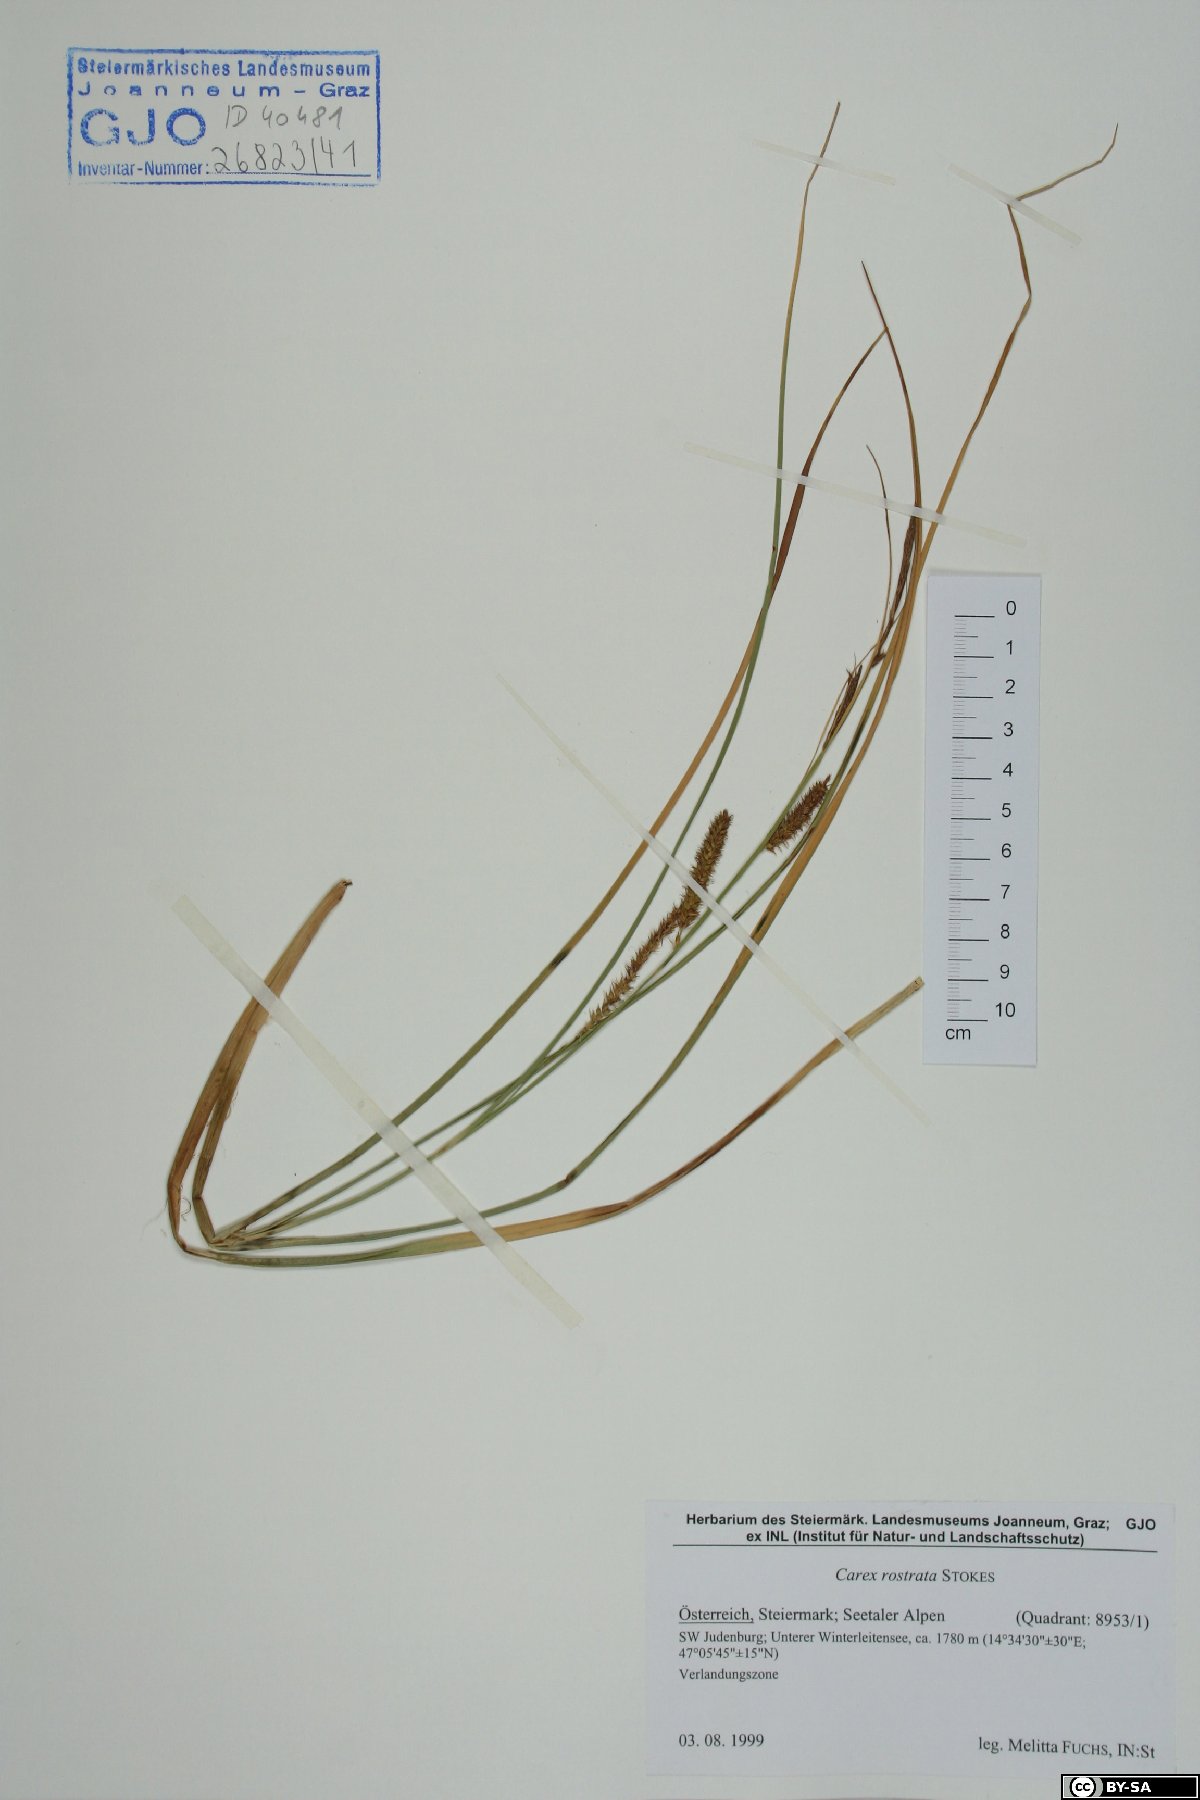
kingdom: Plantae
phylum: Tracheophyta
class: Liliopsida
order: Poales
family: Cyperaceae
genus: Carex
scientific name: Carex rostrata
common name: Bottle sedge
